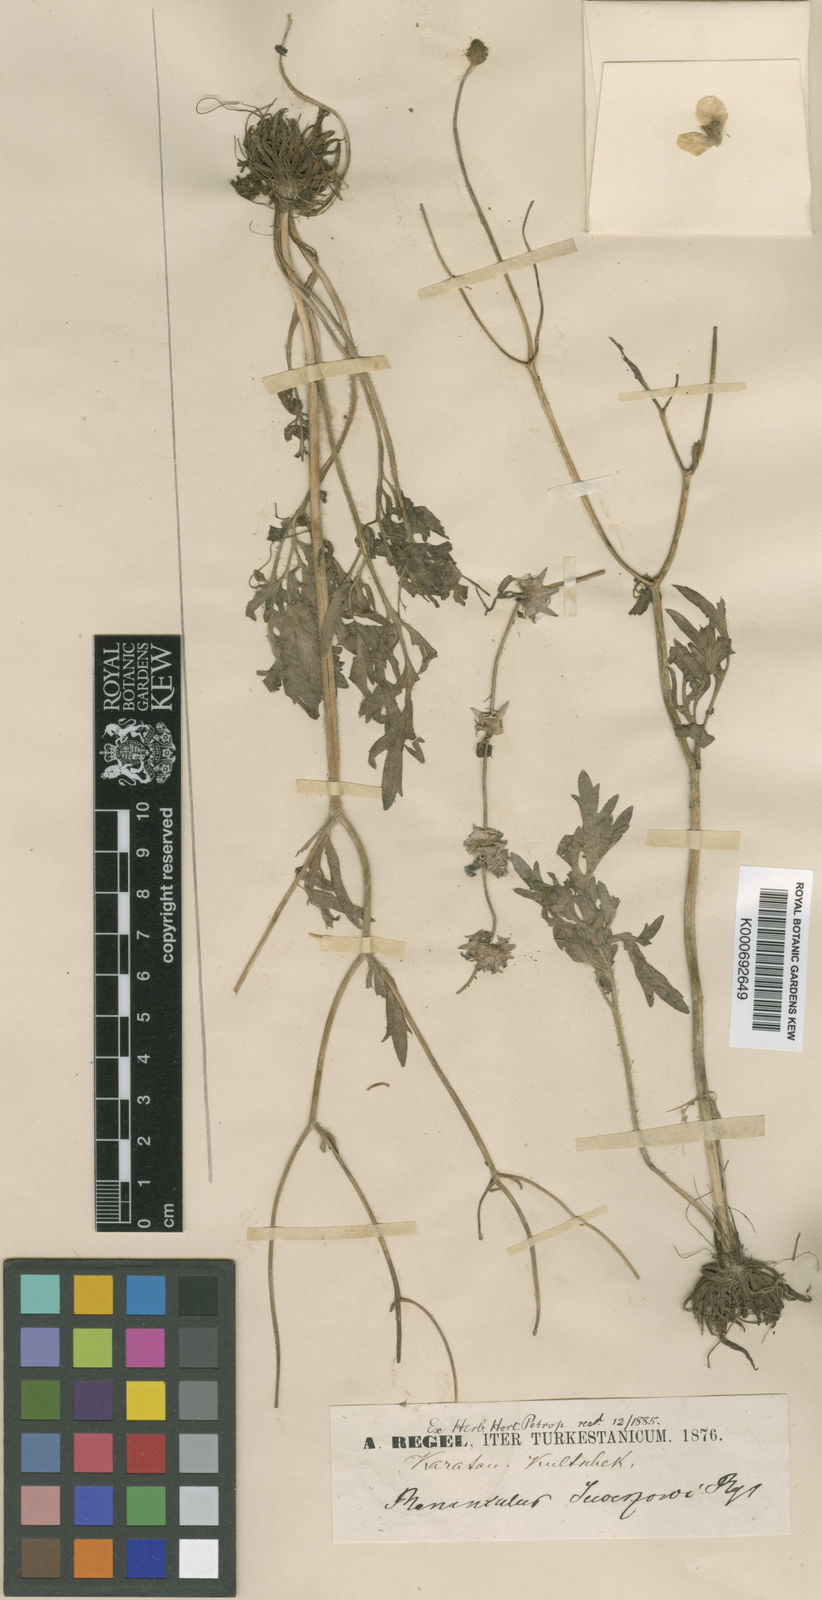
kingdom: Plantae
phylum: Tracheophyta
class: Magnoliopsida
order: Ranunculales
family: Ranunculaceae
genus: Ranunculus
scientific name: Ranunculus sewerzowii
